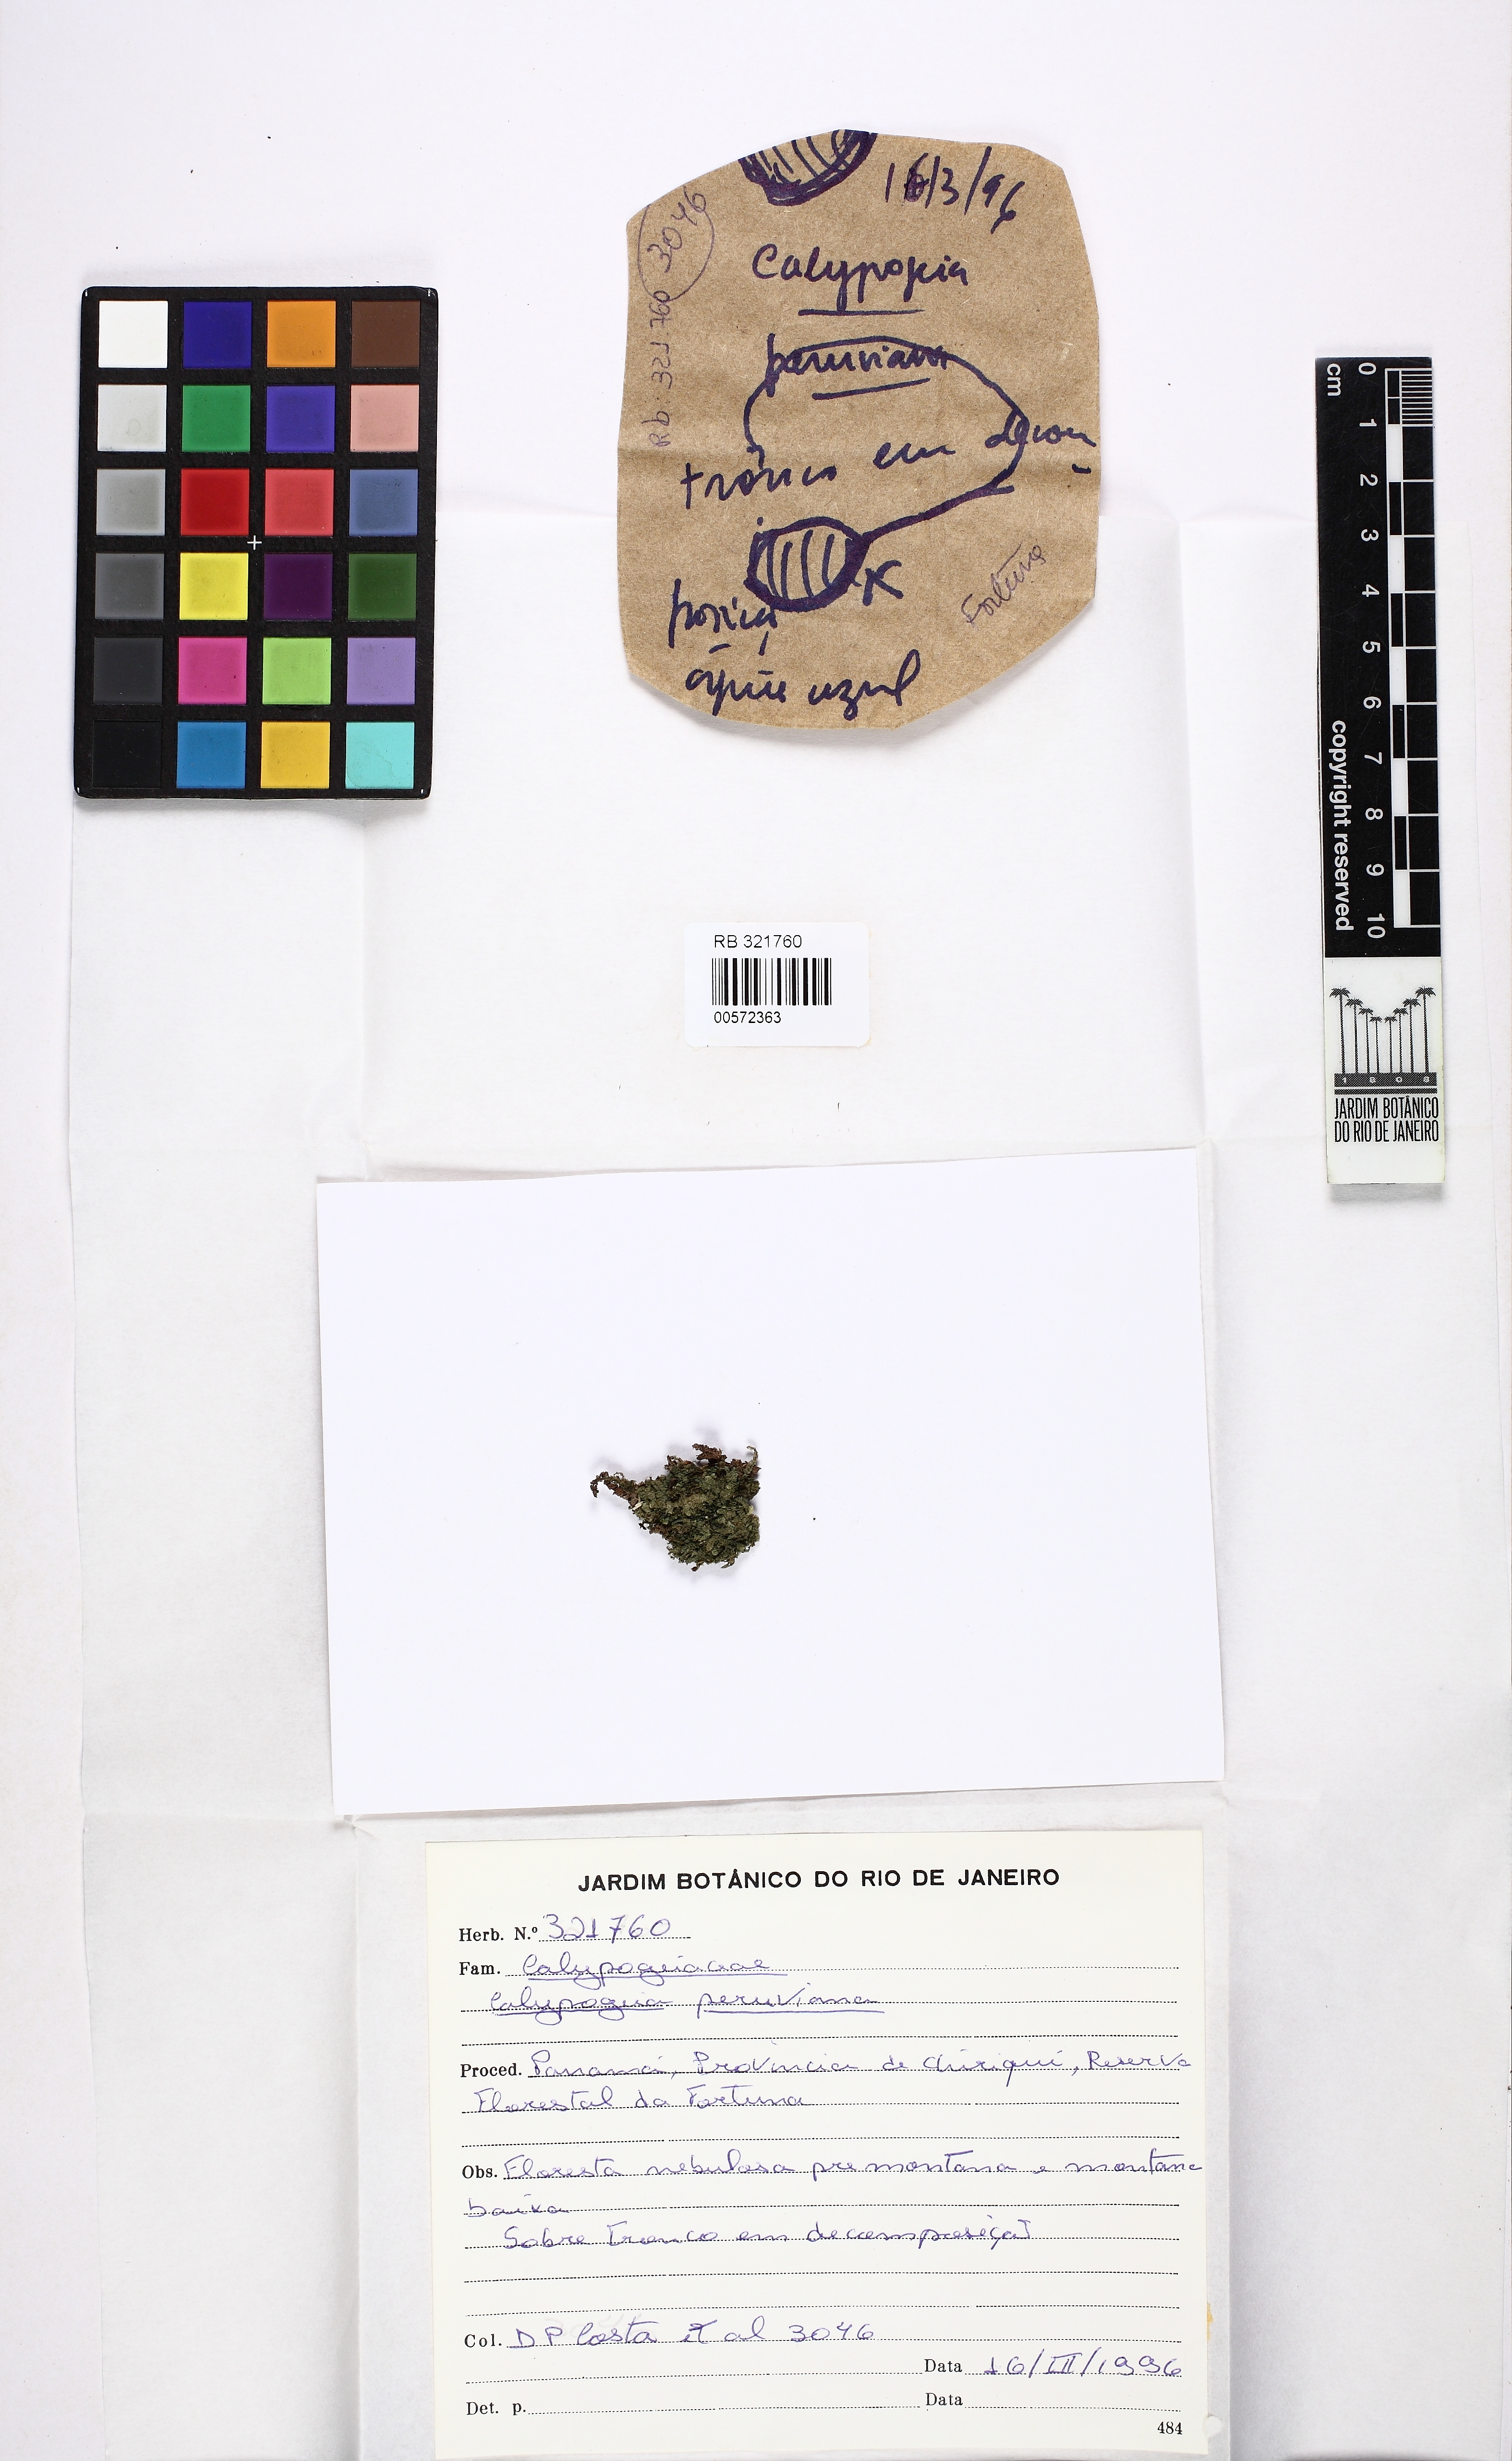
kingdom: Plantae
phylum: Marchantiophyta
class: Jungermanniopsida
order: Jungermanniales
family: Calypogeiaceae
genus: Calypogeia
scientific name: Calypogeia peruviana
